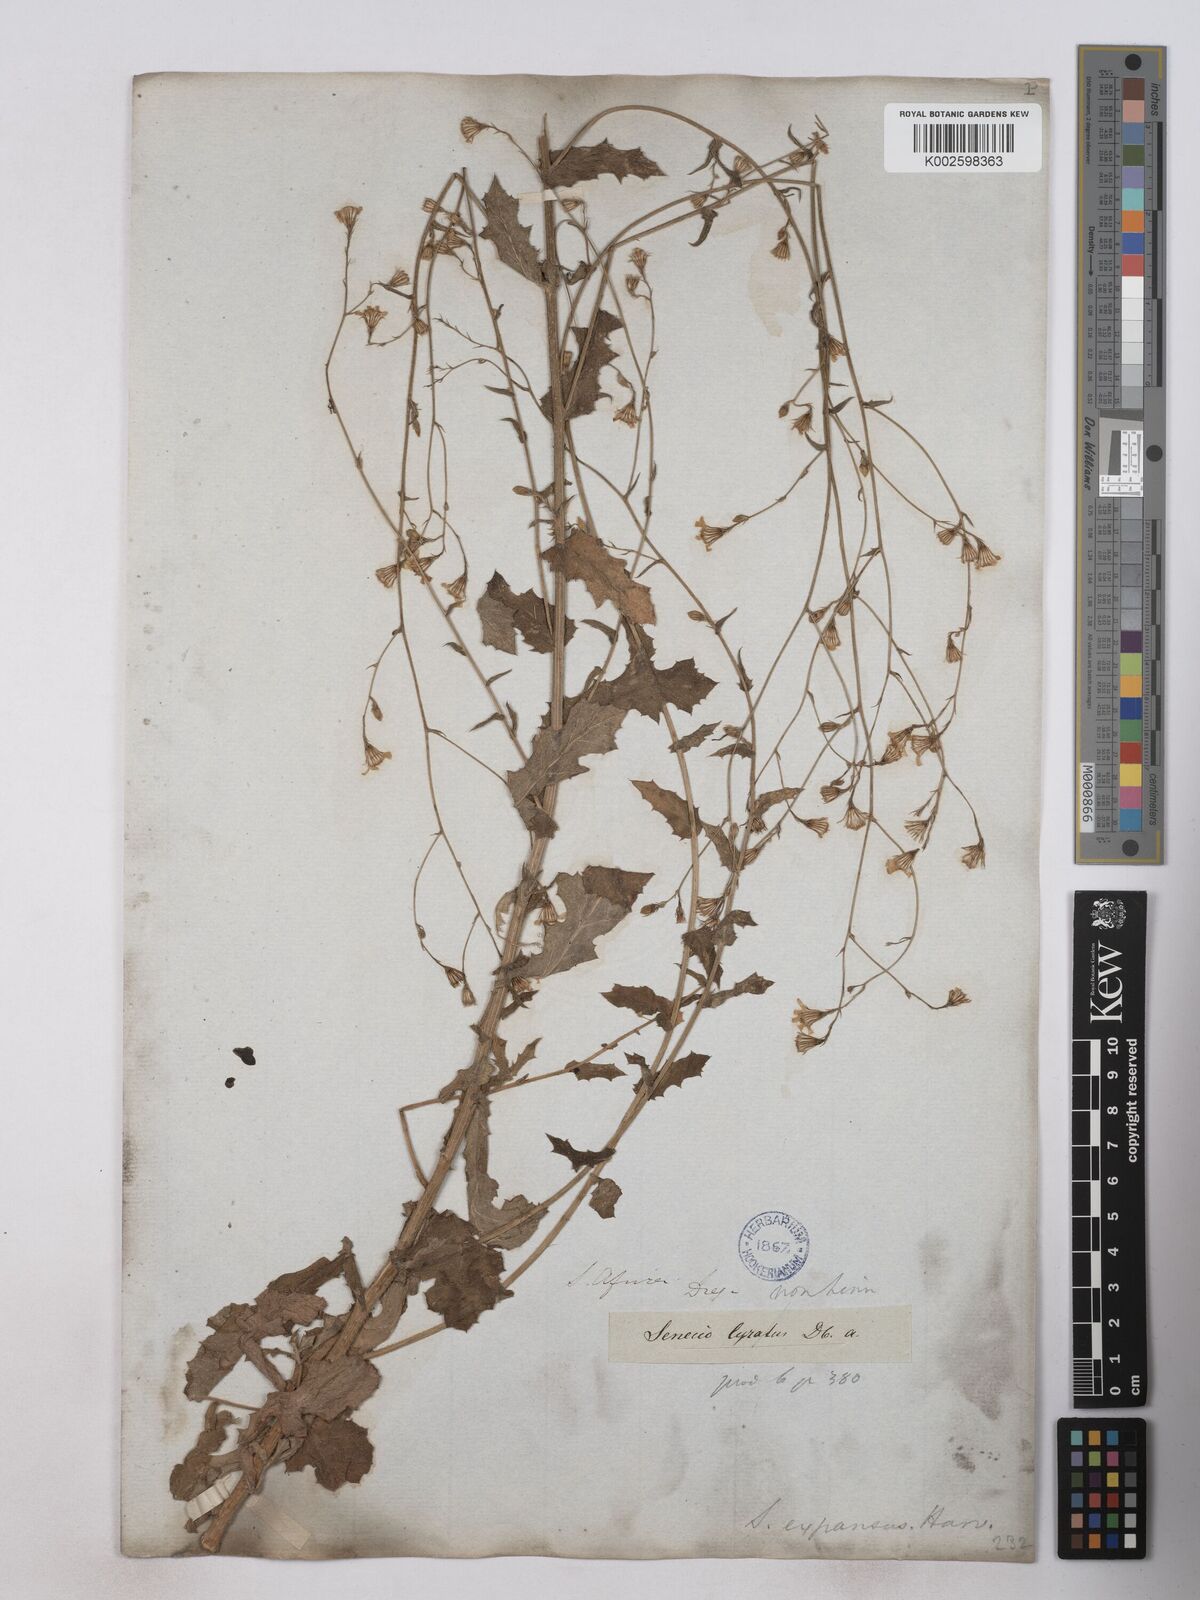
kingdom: Plantae
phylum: Tracheophyta
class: Magnoliopsida
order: Asterales
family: Asteraceae
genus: Senecio
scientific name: Senecio anapetes
